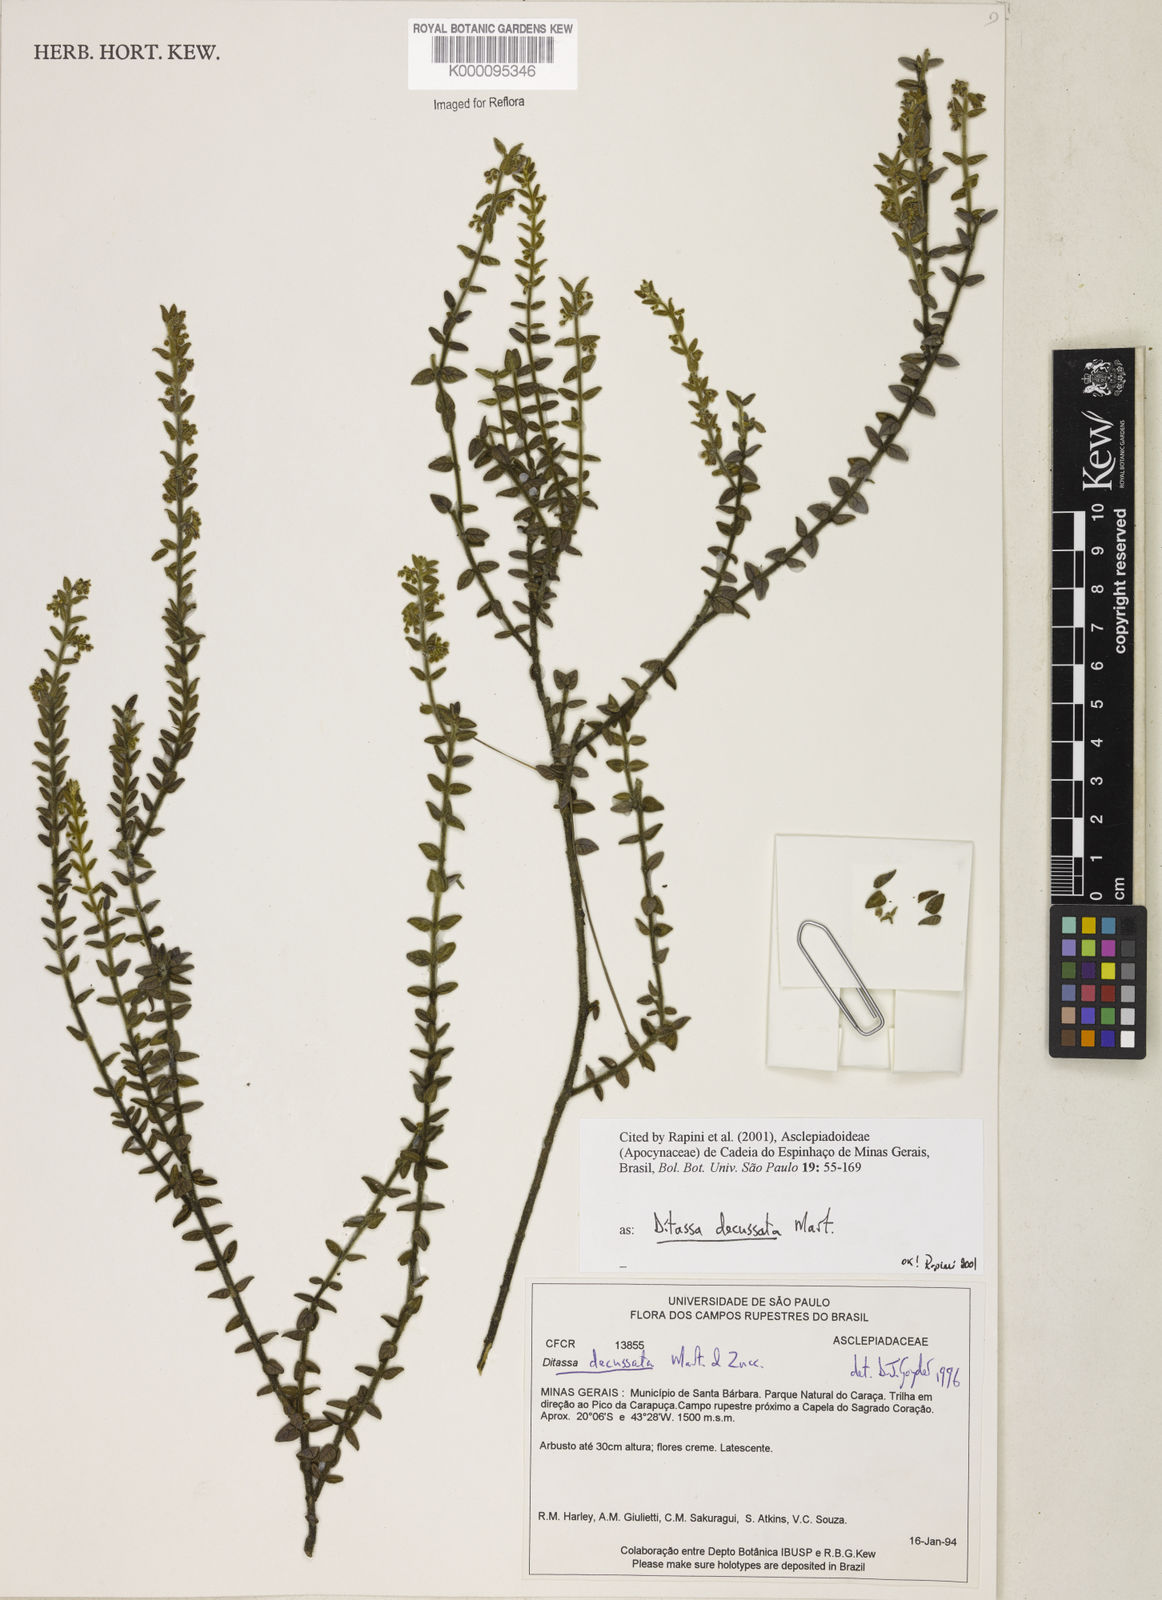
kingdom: Plantae
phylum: Tracheophyta
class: Magnoliopsida
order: Gentianales
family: Apocynaceae
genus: Minaria
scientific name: Minaria decussata
